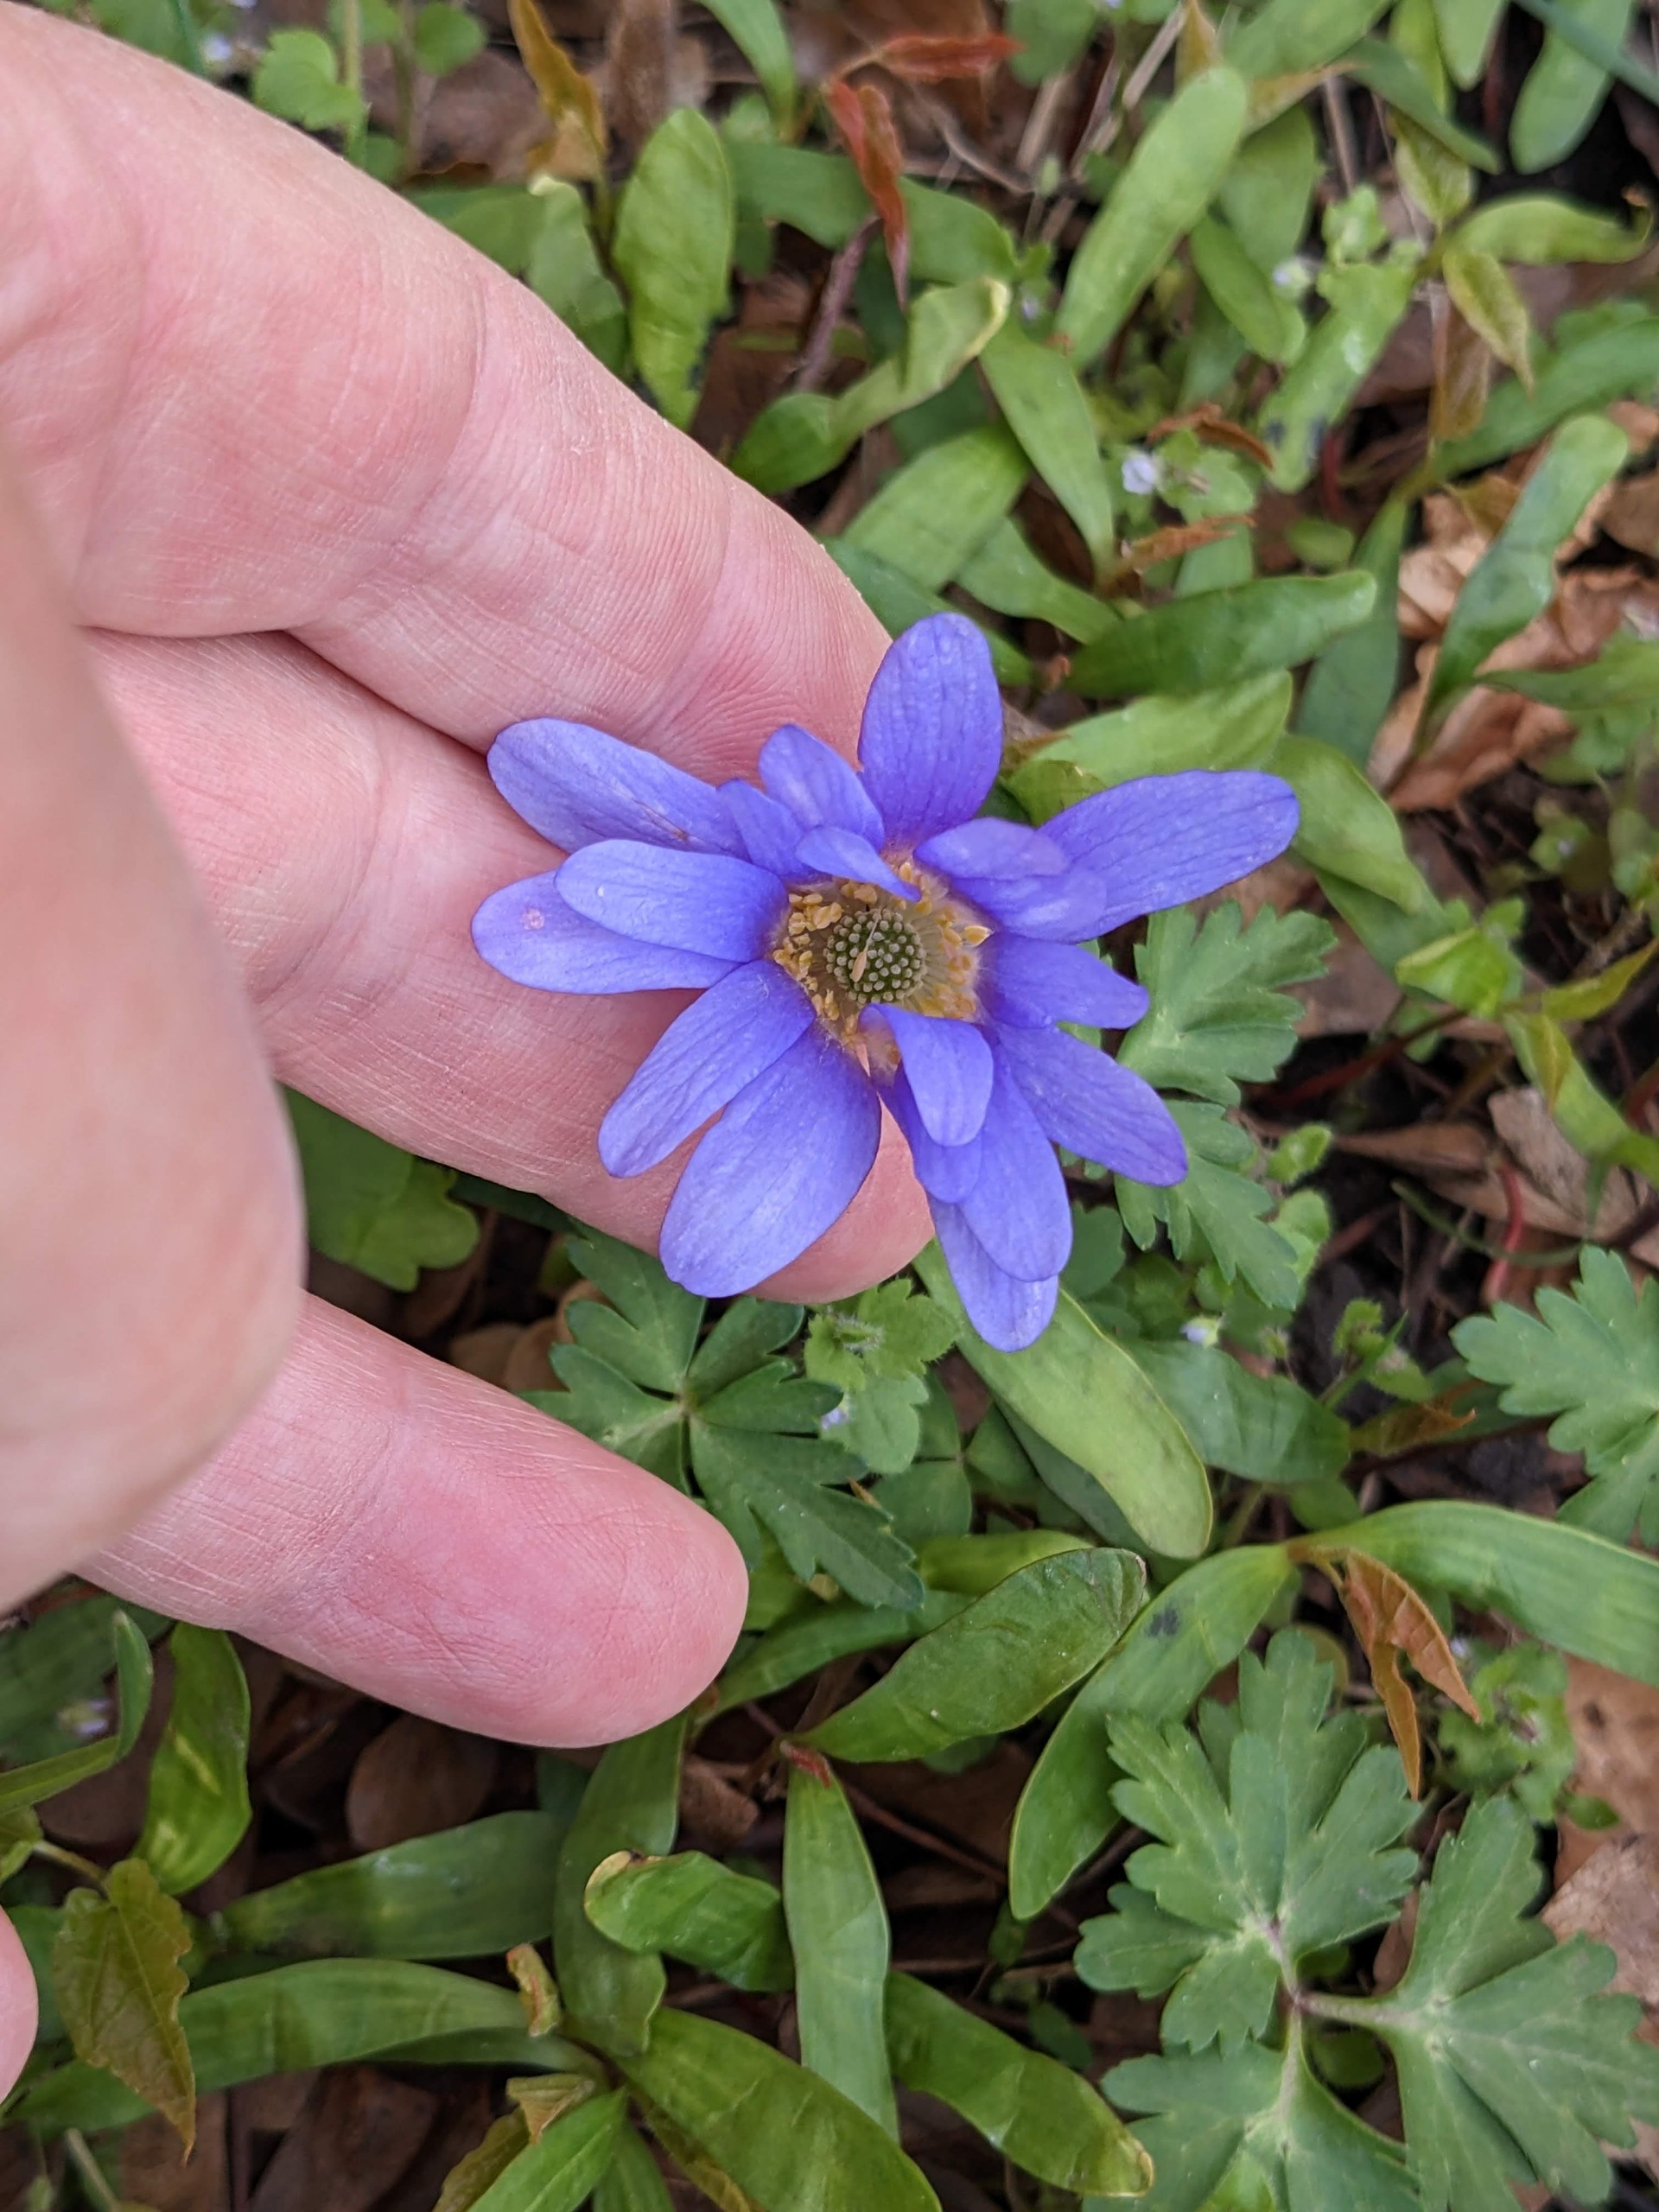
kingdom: Plantae
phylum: Tracheophyta
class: Magnoliopsida
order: Ranunculales
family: Ranunculaceae
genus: Anemone
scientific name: Anemone blanda
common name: Balkan-anemone
